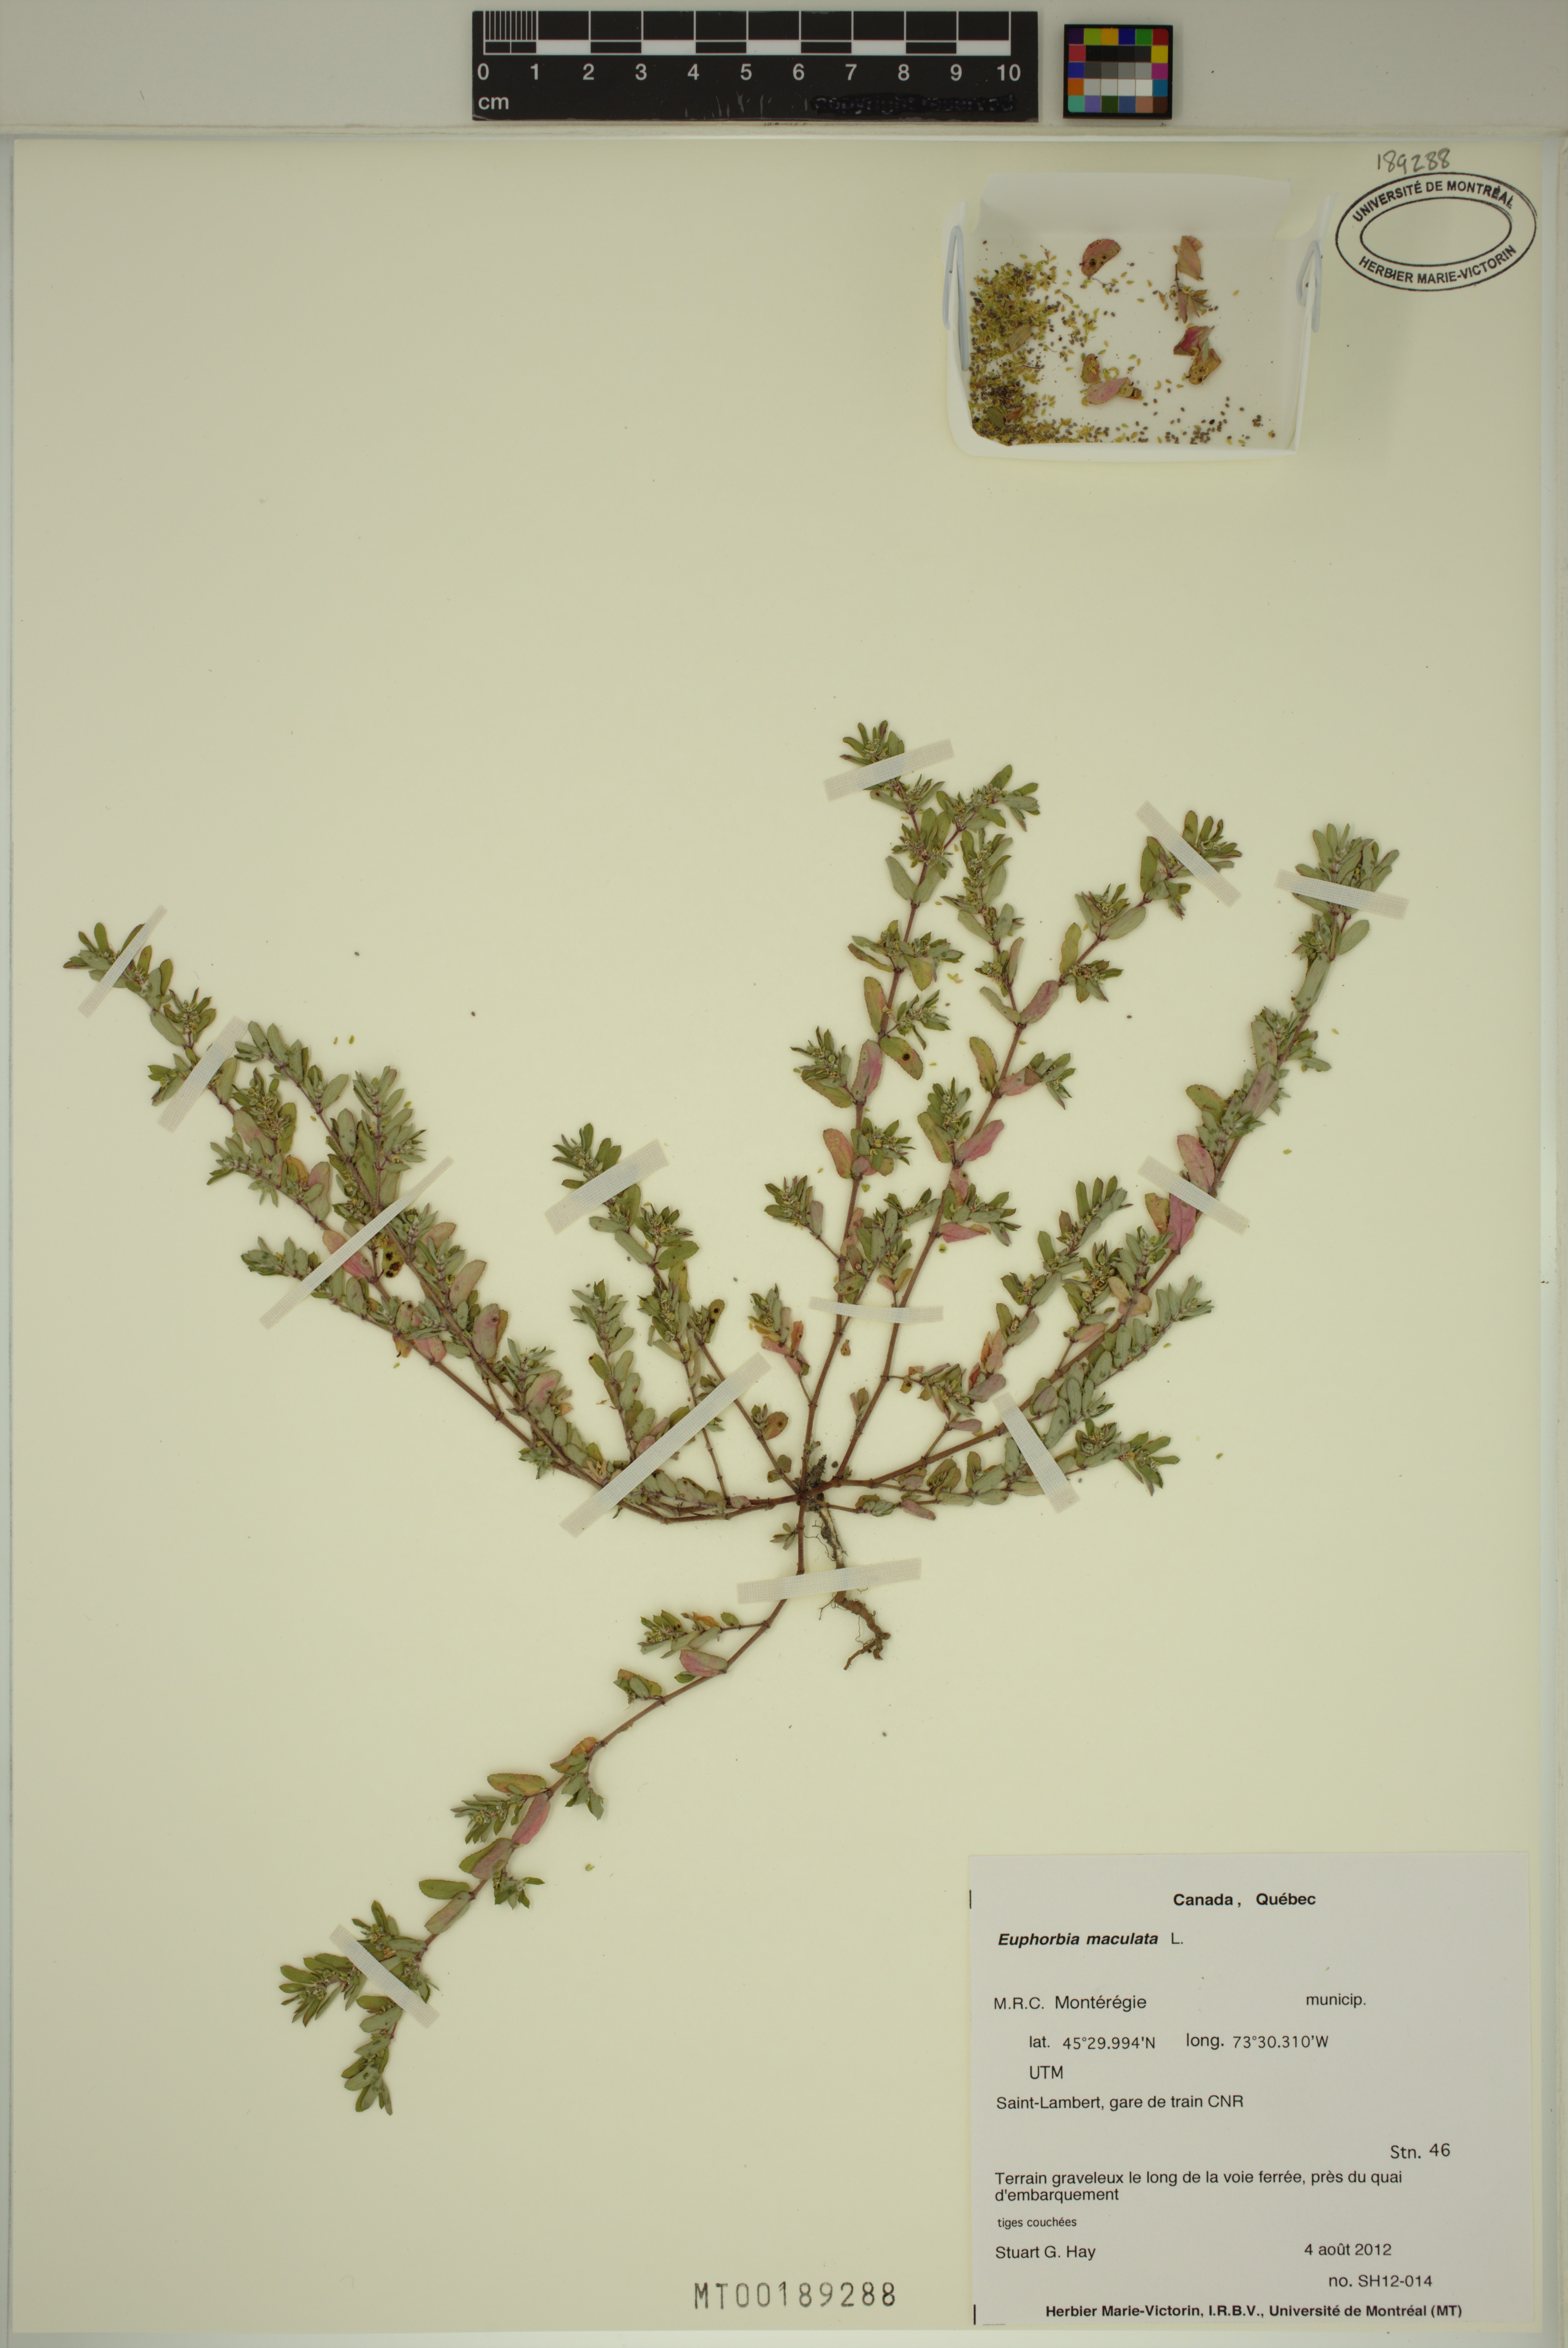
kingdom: Plantae
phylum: Tracheophyta
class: Magnoliopsida
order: Malpighiales
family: Euphorbiaceae
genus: Euphorbia
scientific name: Euphorbia maculata
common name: Spotted spurge
